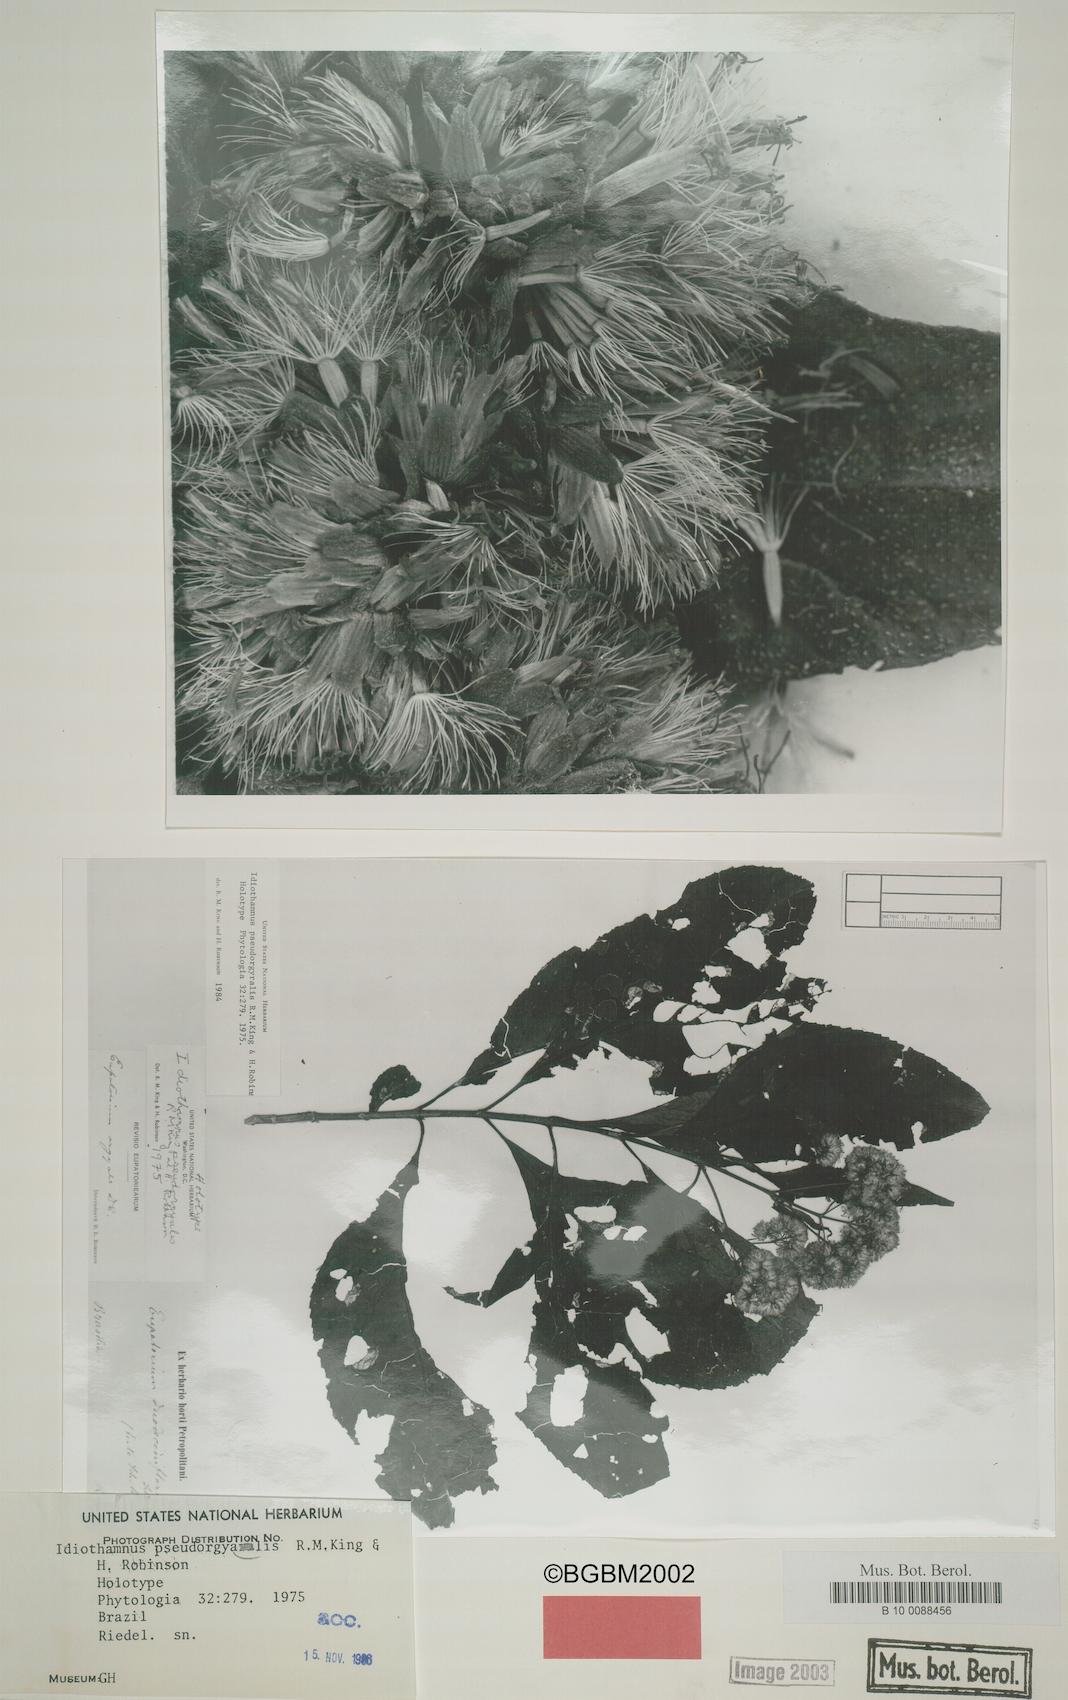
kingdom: Plantae
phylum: Tracheophyta
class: Magnoliopsida
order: Asterales
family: Asteraceae
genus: Idiothamnus
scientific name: Idiothamnus pseudorgyalis
